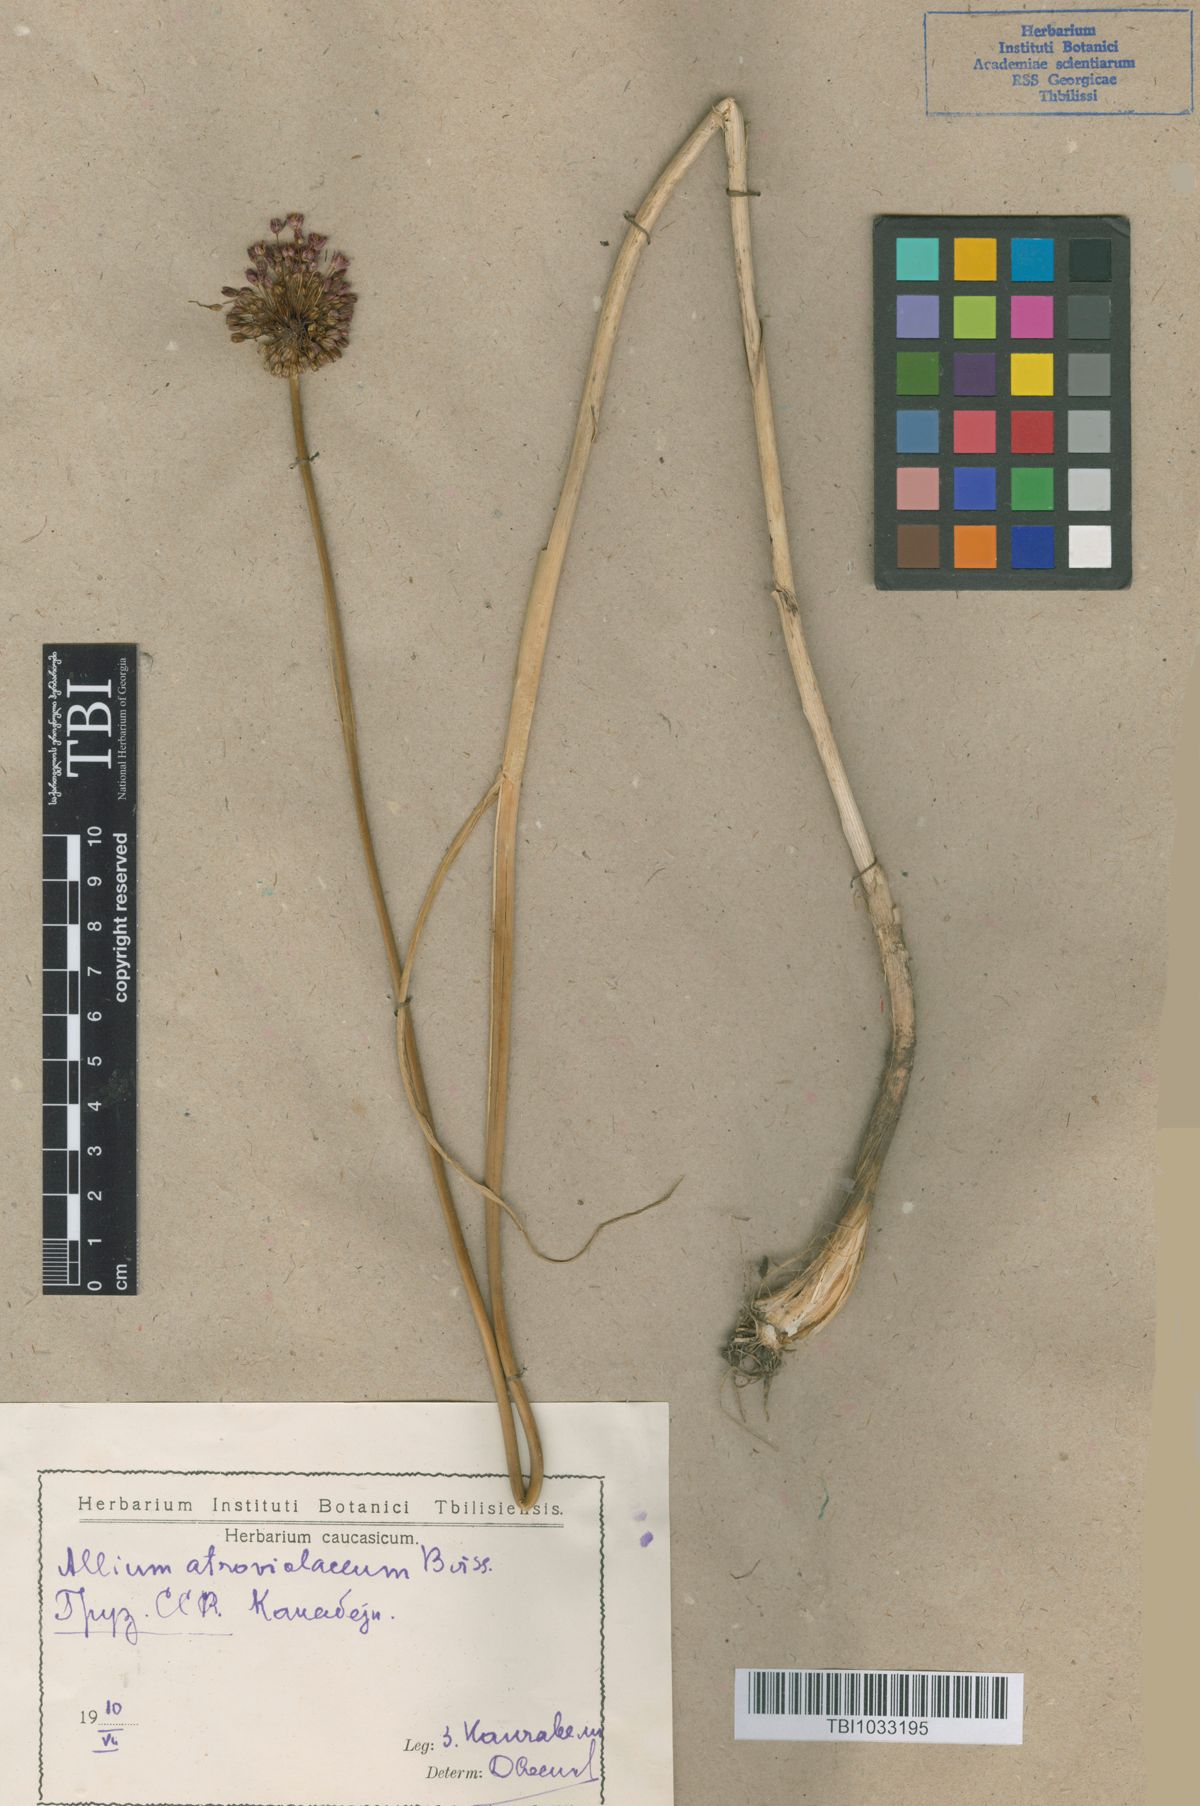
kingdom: Plantae
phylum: Tracheophyta
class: Liliopsida
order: Asparagales
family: Amaryllidaceae
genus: Allium
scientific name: Allium atroviolaceum
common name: Broadleaf wild leek
